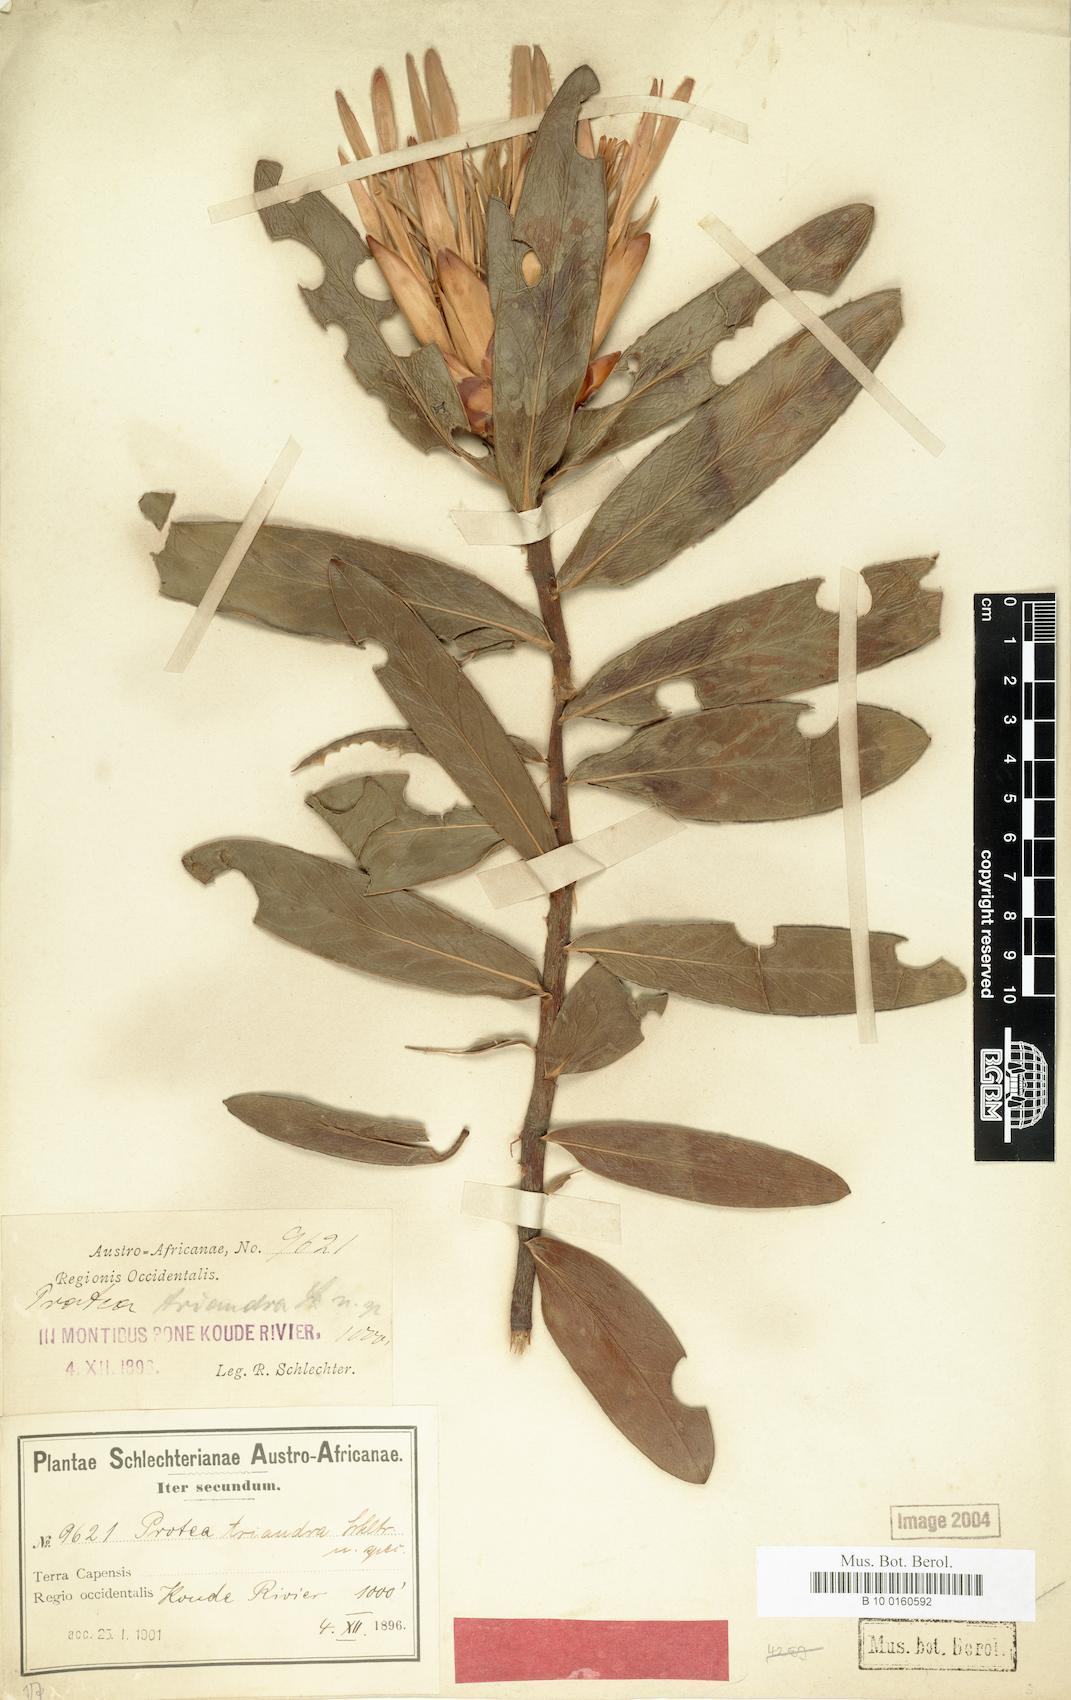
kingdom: Plantae
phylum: Tracheophyta
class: Magnoliopsida
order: Proteales
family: Proteaceae
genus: Protea
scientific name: Protea compacta
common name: Bot river protea
